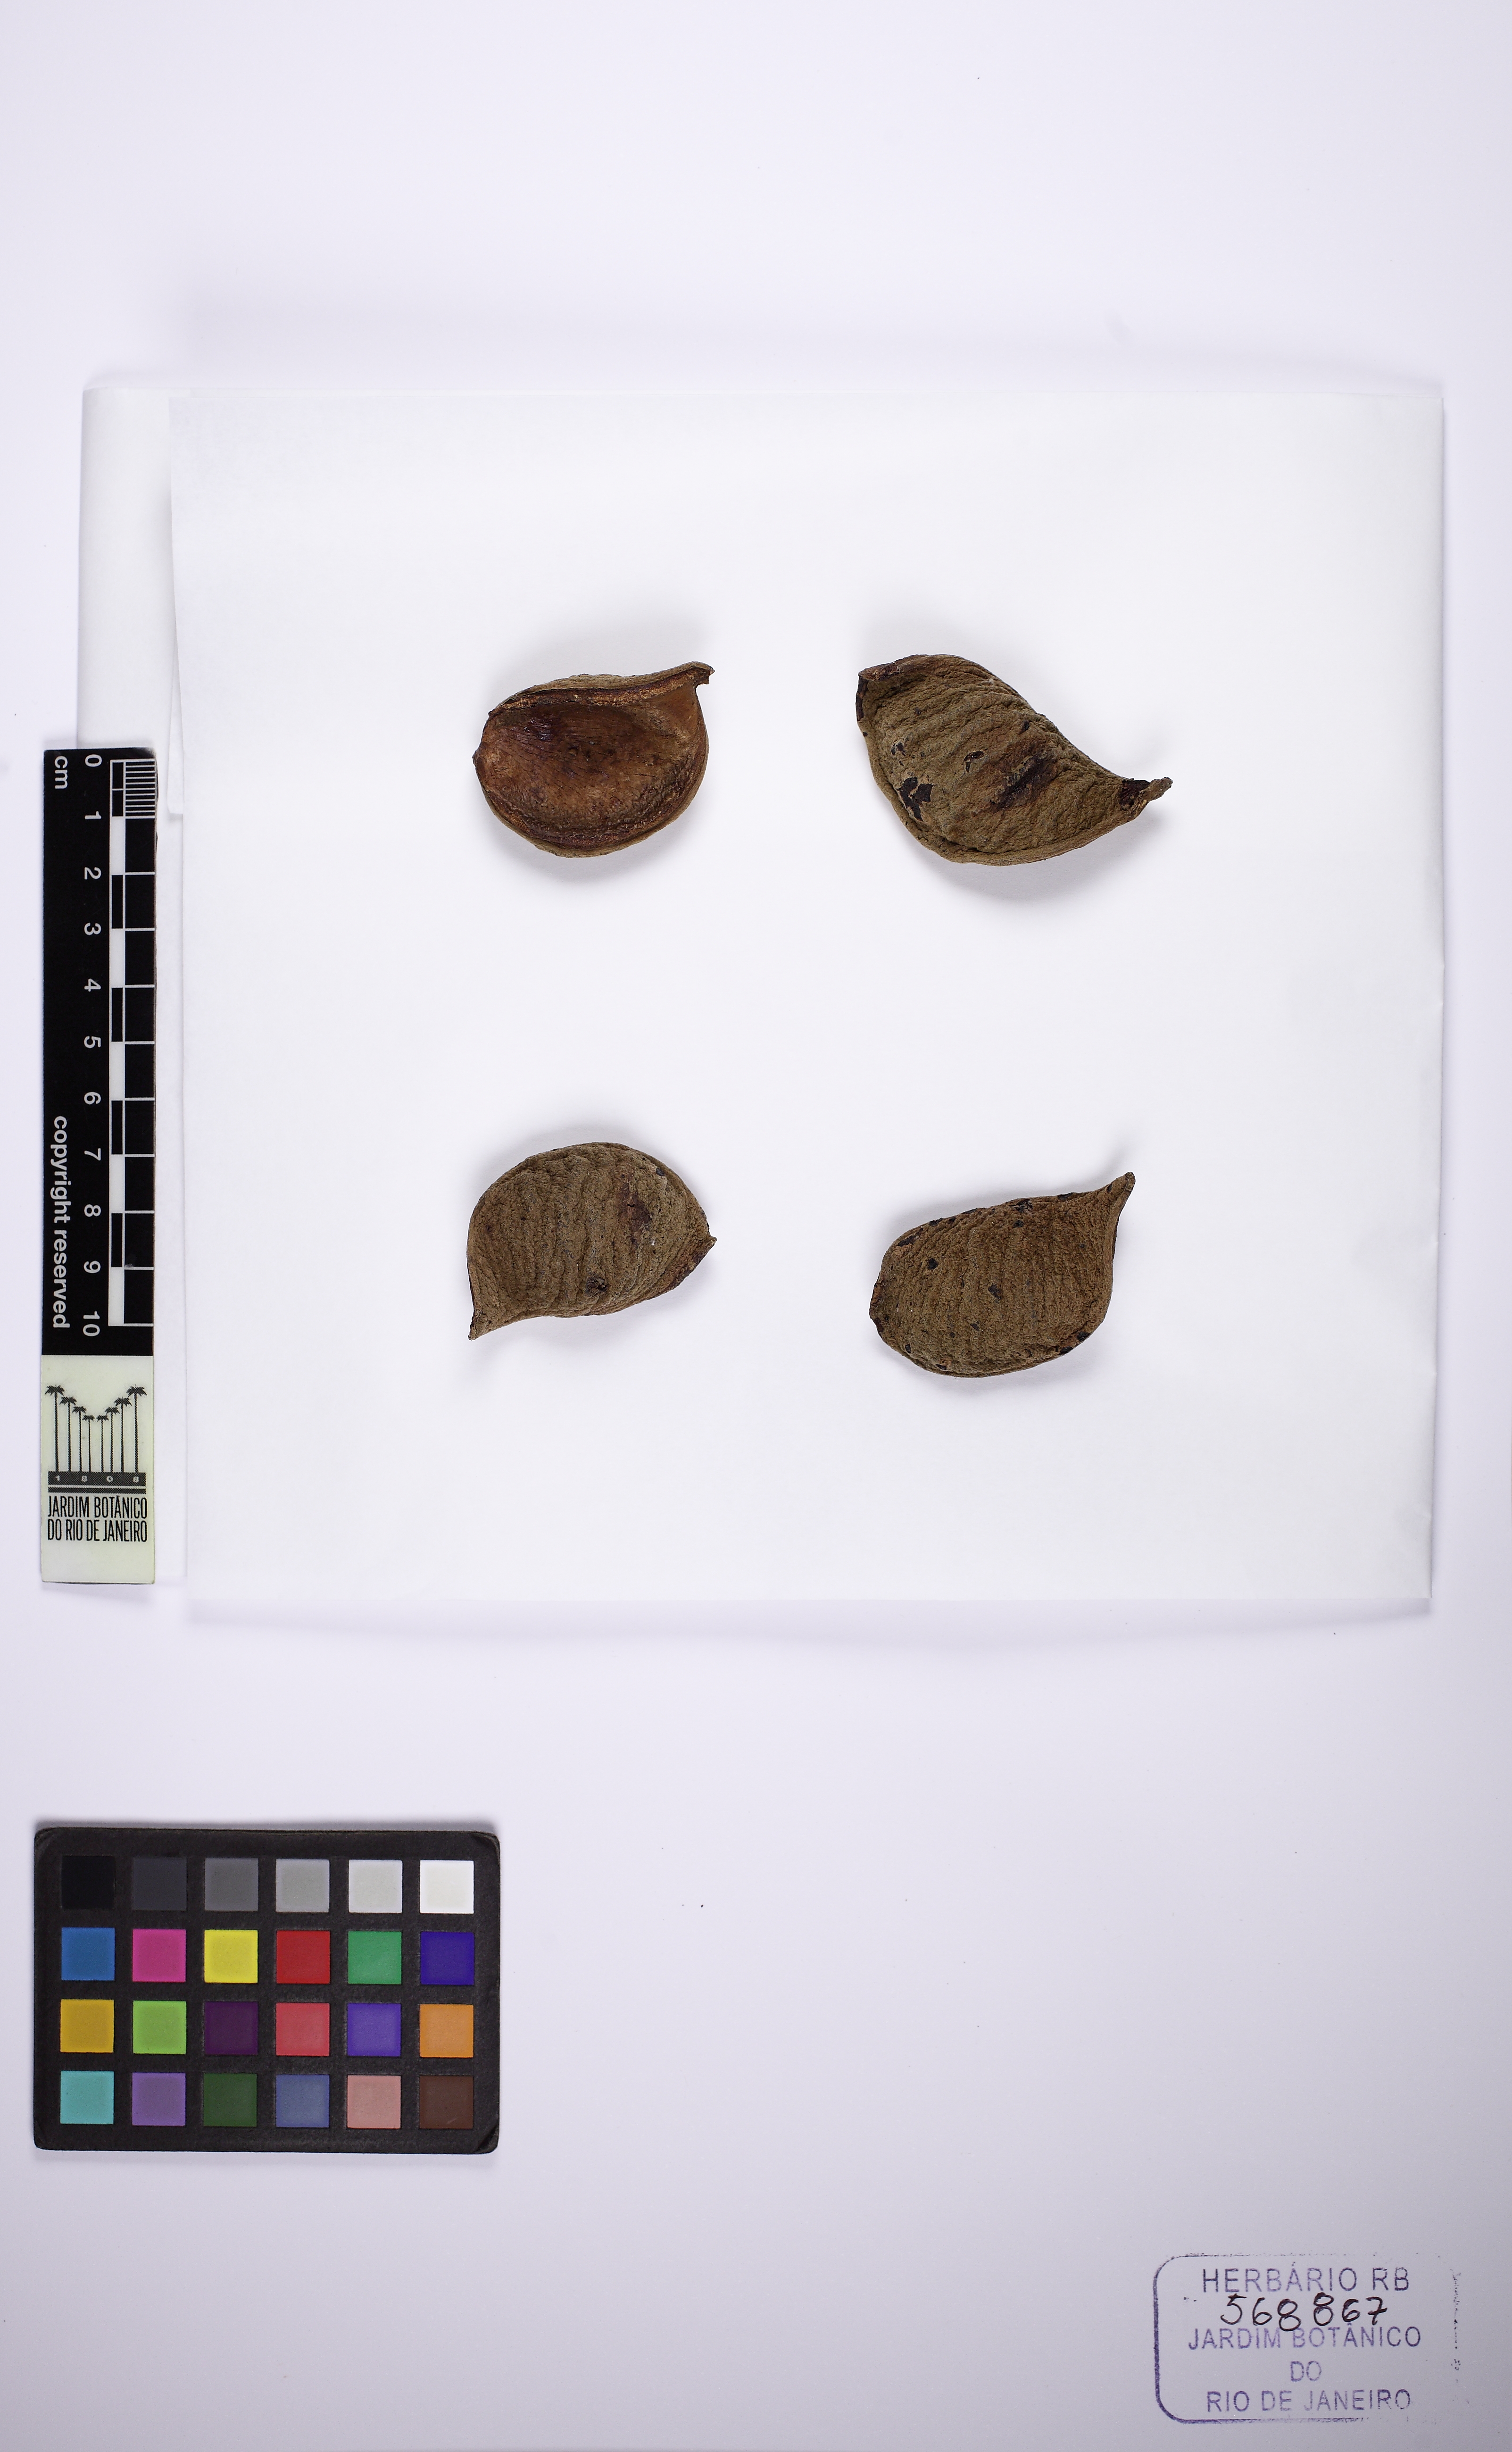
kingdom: Plantae
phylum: Tracheophyta
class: Magnoliopsida
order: Fabales
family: Fabaceae
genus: Swartzia
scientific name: Swartzia acreana
